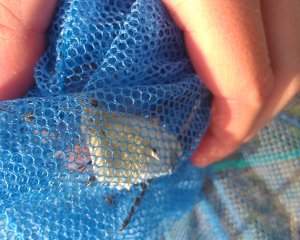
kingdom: Animalia
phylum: Arthropoda
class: Insecta
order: Lepidoptera
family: Pieridae
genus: Pieris
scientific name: Pieris rapae
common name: Cabbage White
